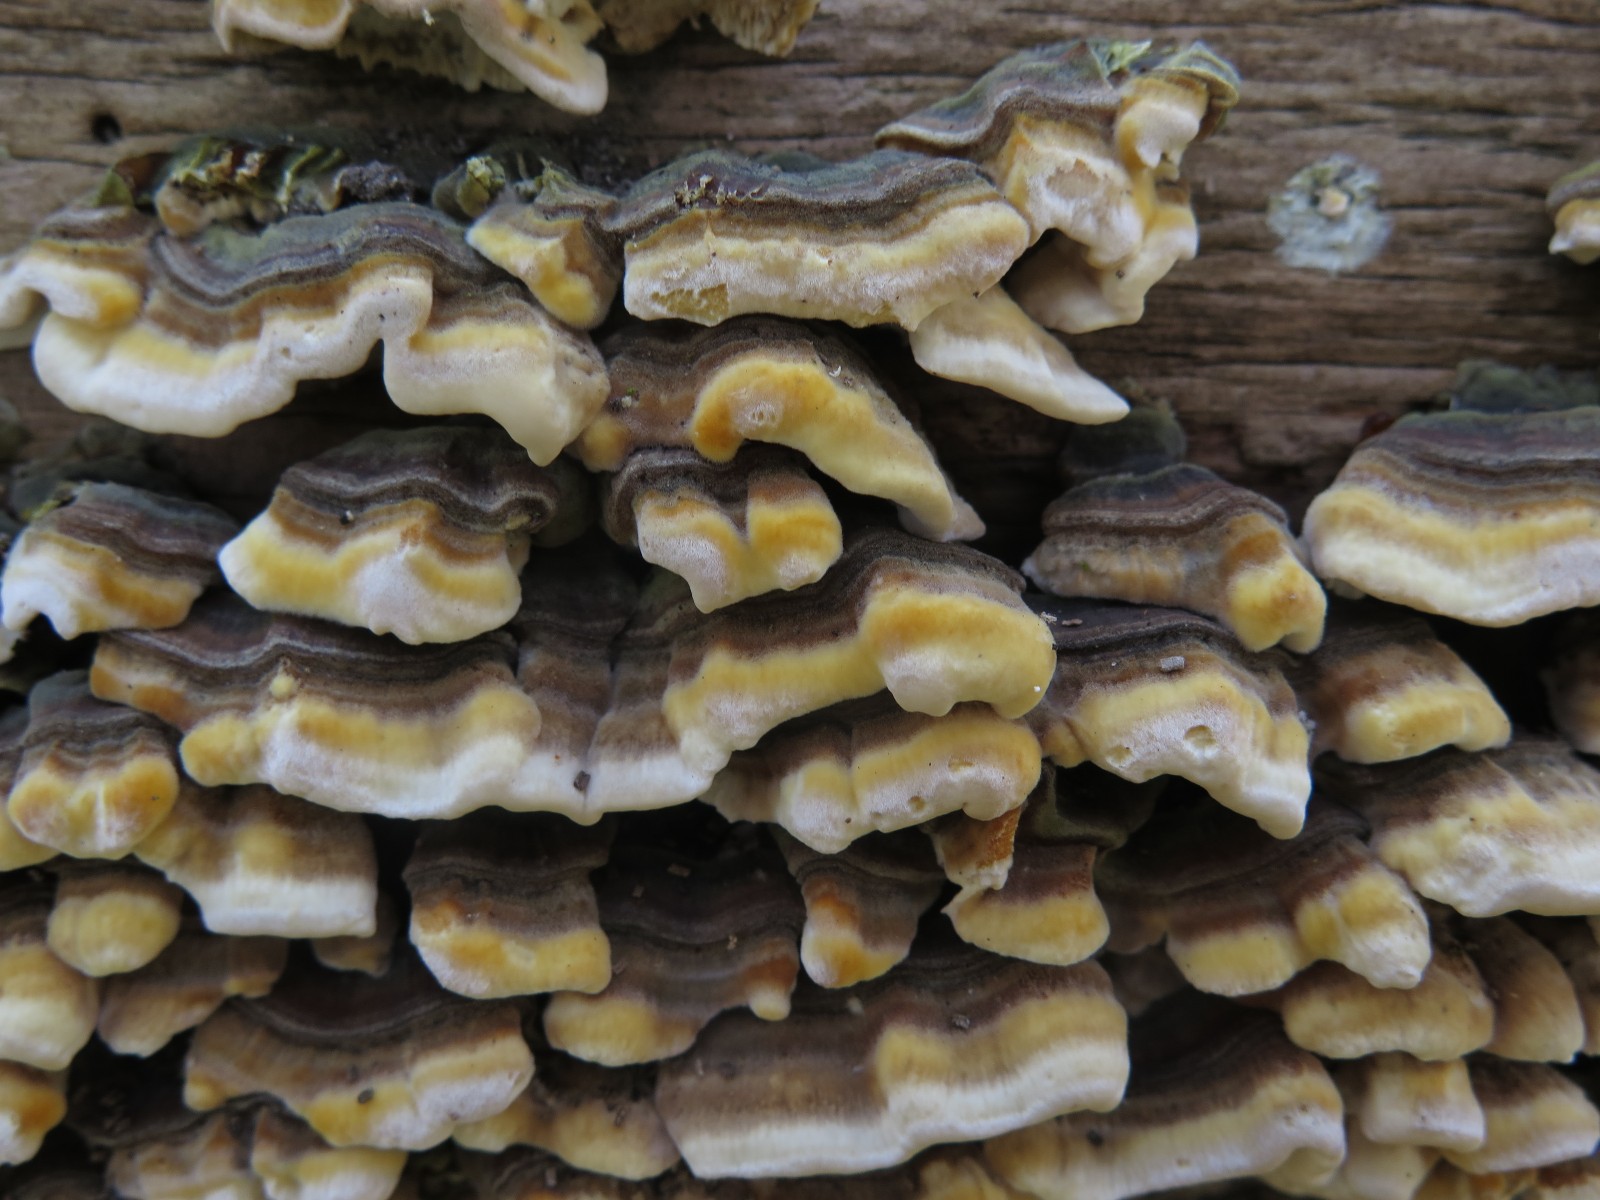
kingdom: Fungi
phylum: Basidiomycota
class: Agaricomycetes
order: Polyporales
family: Polyporaceae
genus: Trametes
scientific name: Trametes versicolor
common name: broget læderporesvamp
